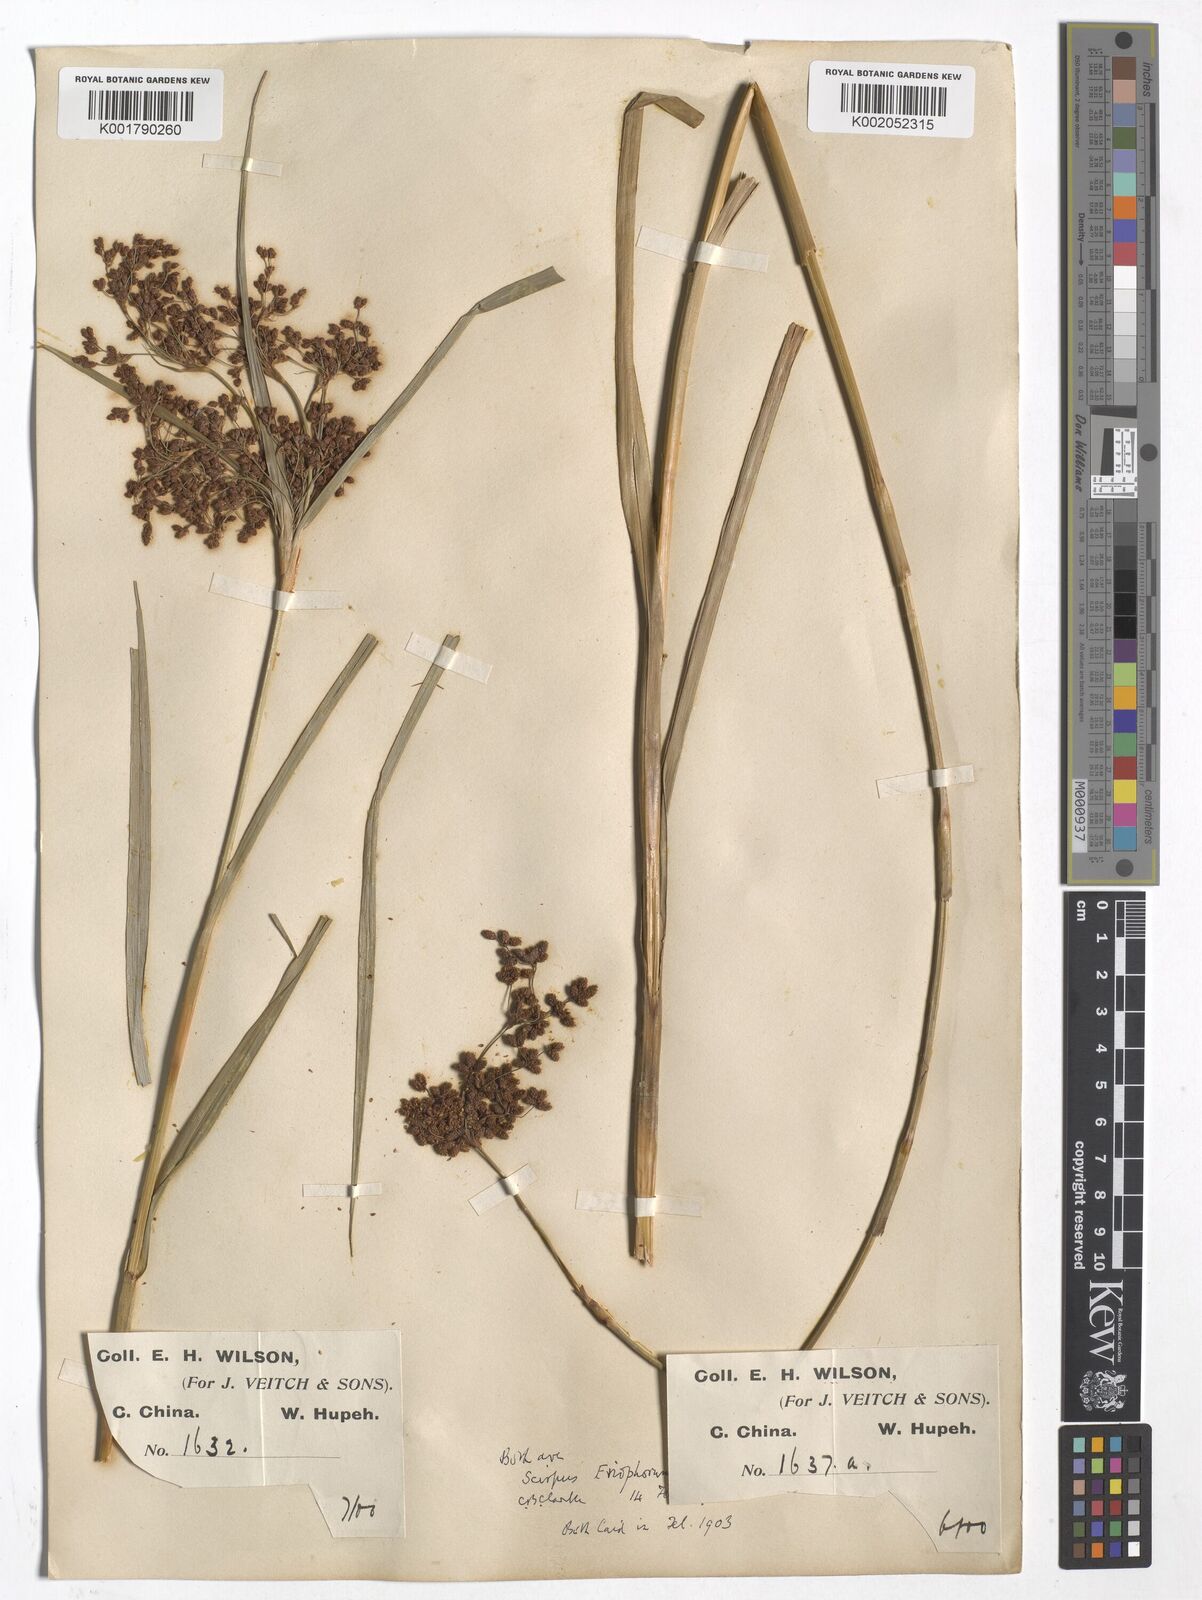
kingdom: Plantae
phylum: Tracheophyta
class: Liliopsida
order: Poales
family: Cyperaceae
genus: Scirpus
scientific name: Scirpus cyperinus
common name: Black-sheathed bulrush
